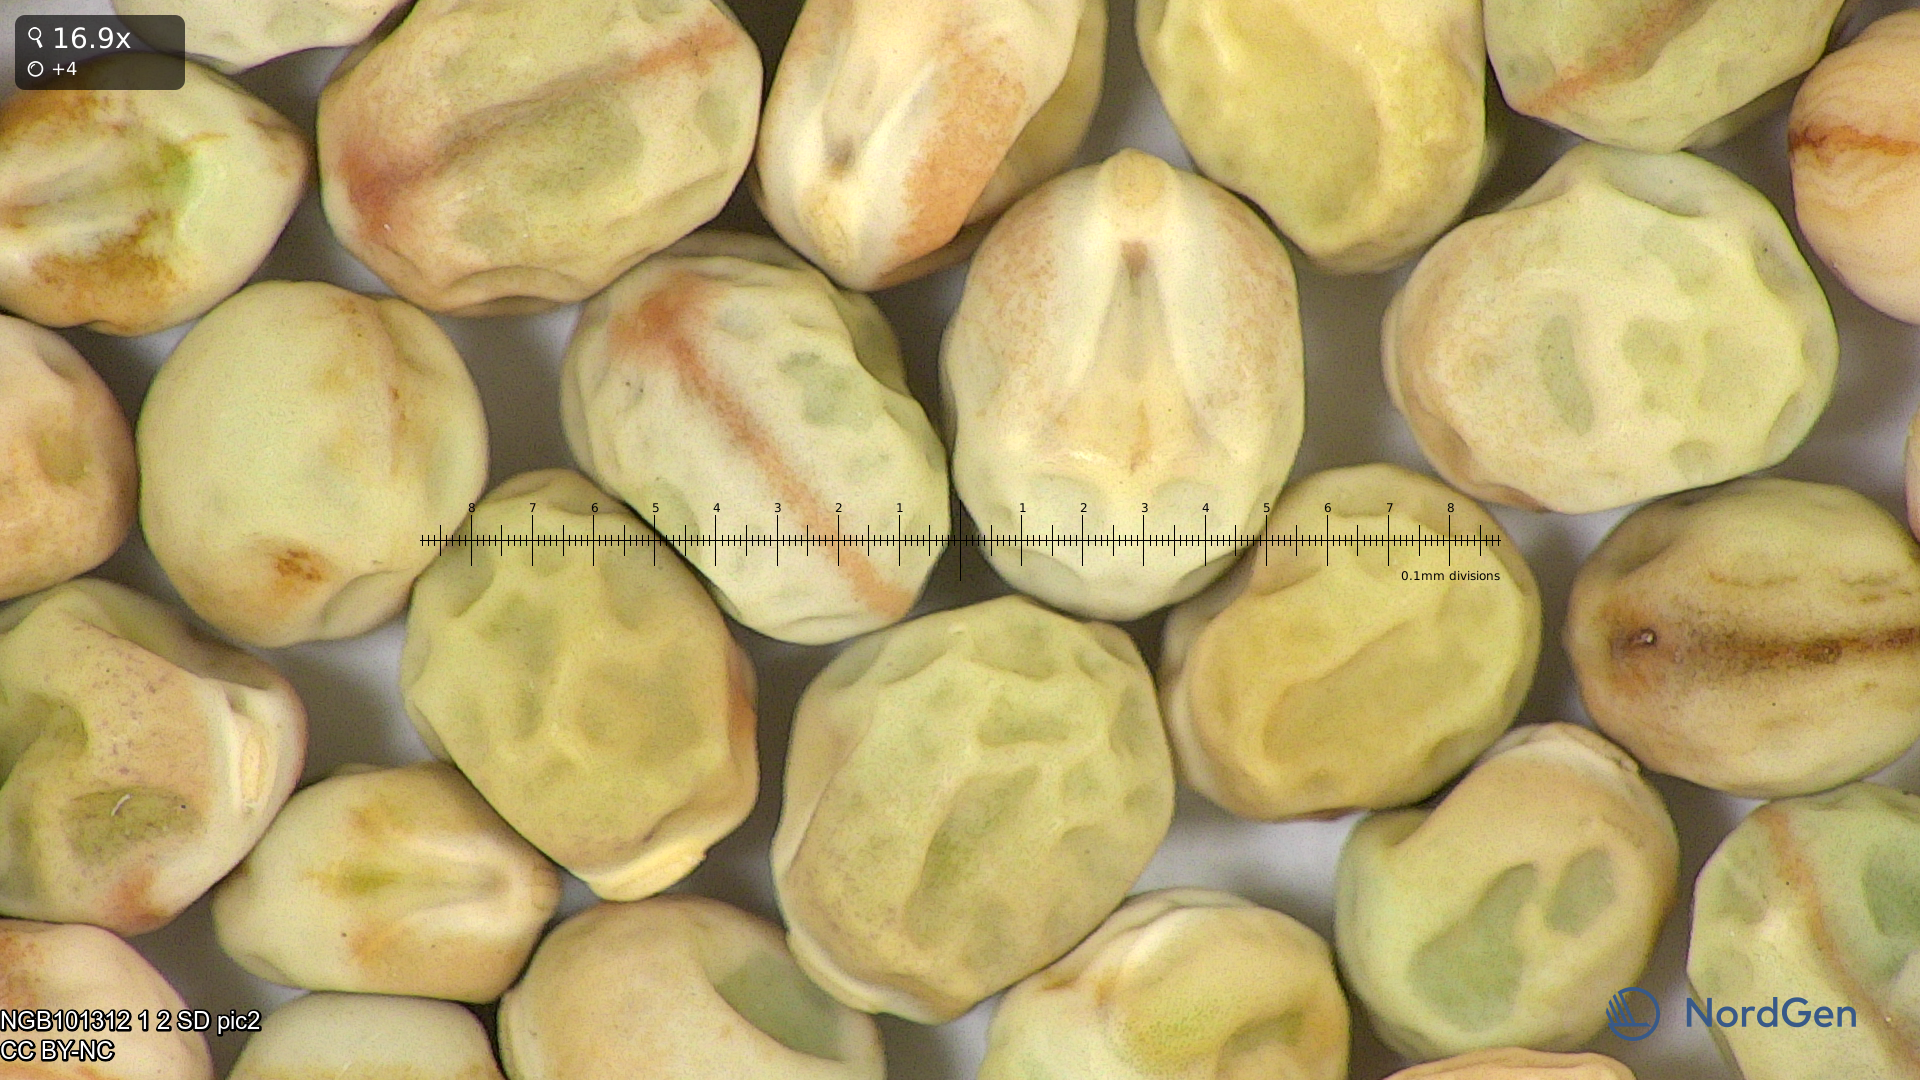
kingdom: Plantae
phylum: Tracheophyta
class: Magnoliopsida
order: Fabales
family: Fabaceae
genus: Lathyrus
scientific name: Lathyrus oleraceus
